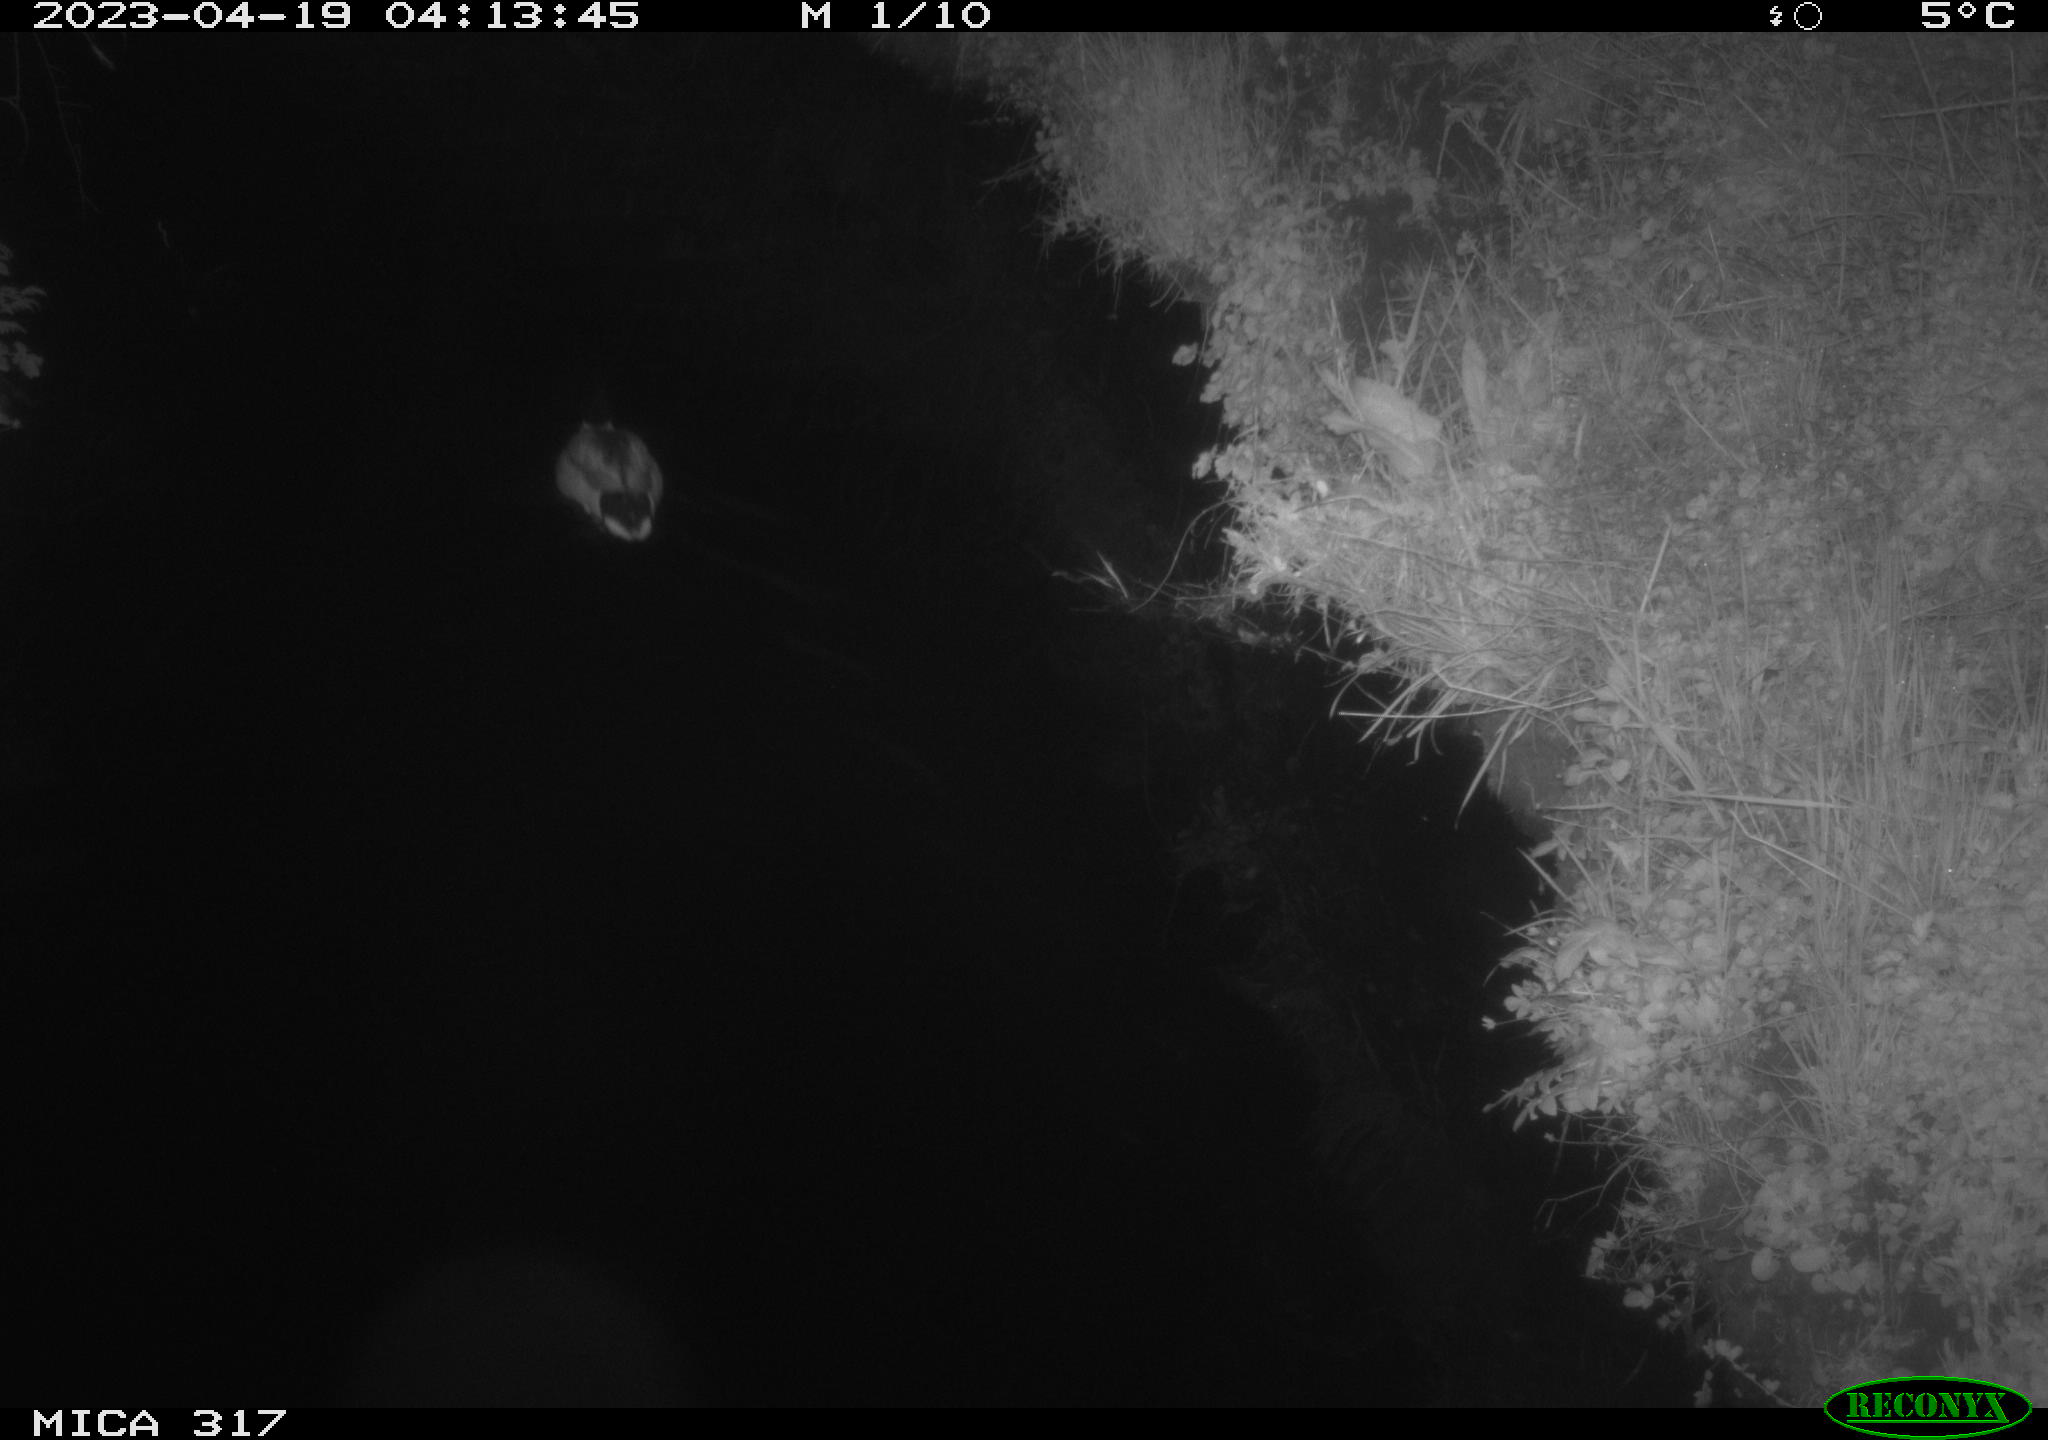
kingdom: Animalia
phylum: Chordata
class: Aves
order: Anseriformes
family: Anatidae
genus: Anas
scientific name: Anas
